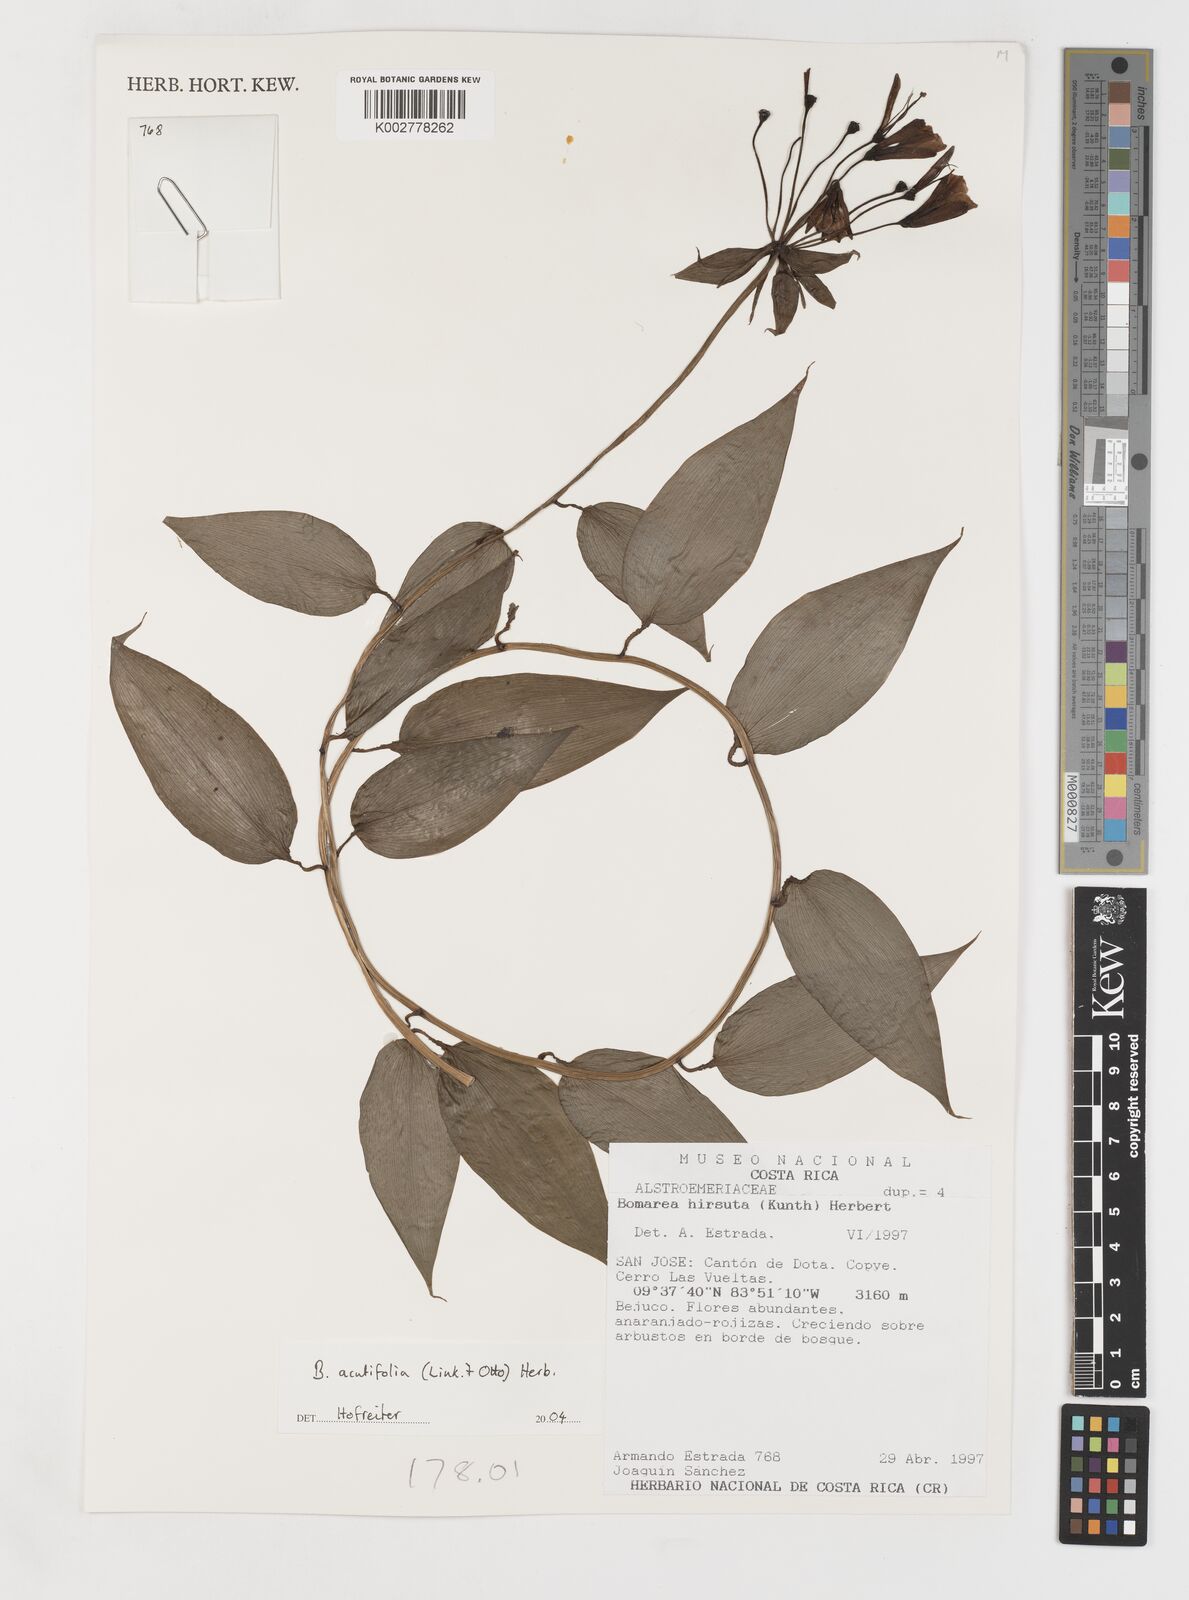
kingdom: Plantae
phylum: Tracheophyta
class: Liliopsida
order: Liliales
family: Alstroemeriaceae
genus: Bomarea
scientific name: Bomarea acutifolia
